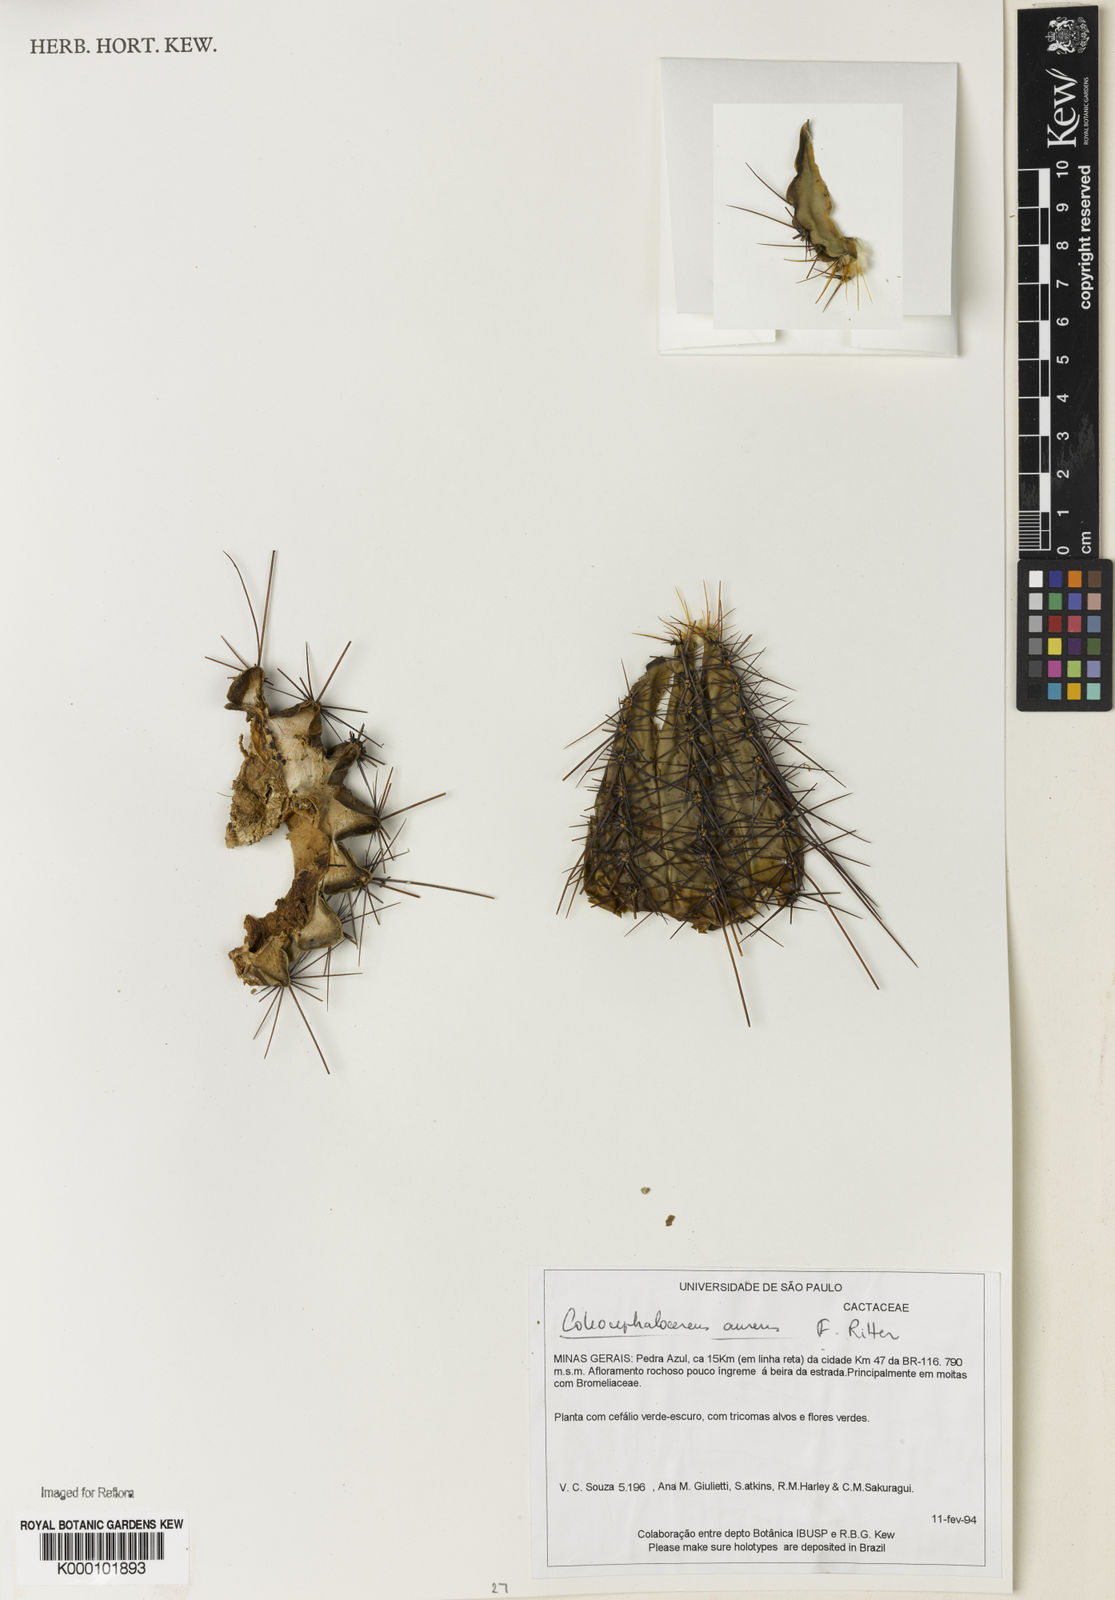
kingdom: Plantae
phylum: Tracheophyta
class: Magnoliopsida
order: Caryophyllales
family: Cactaceae
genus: Coleocephalocereus
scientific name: Coleocephalocereus aureus
